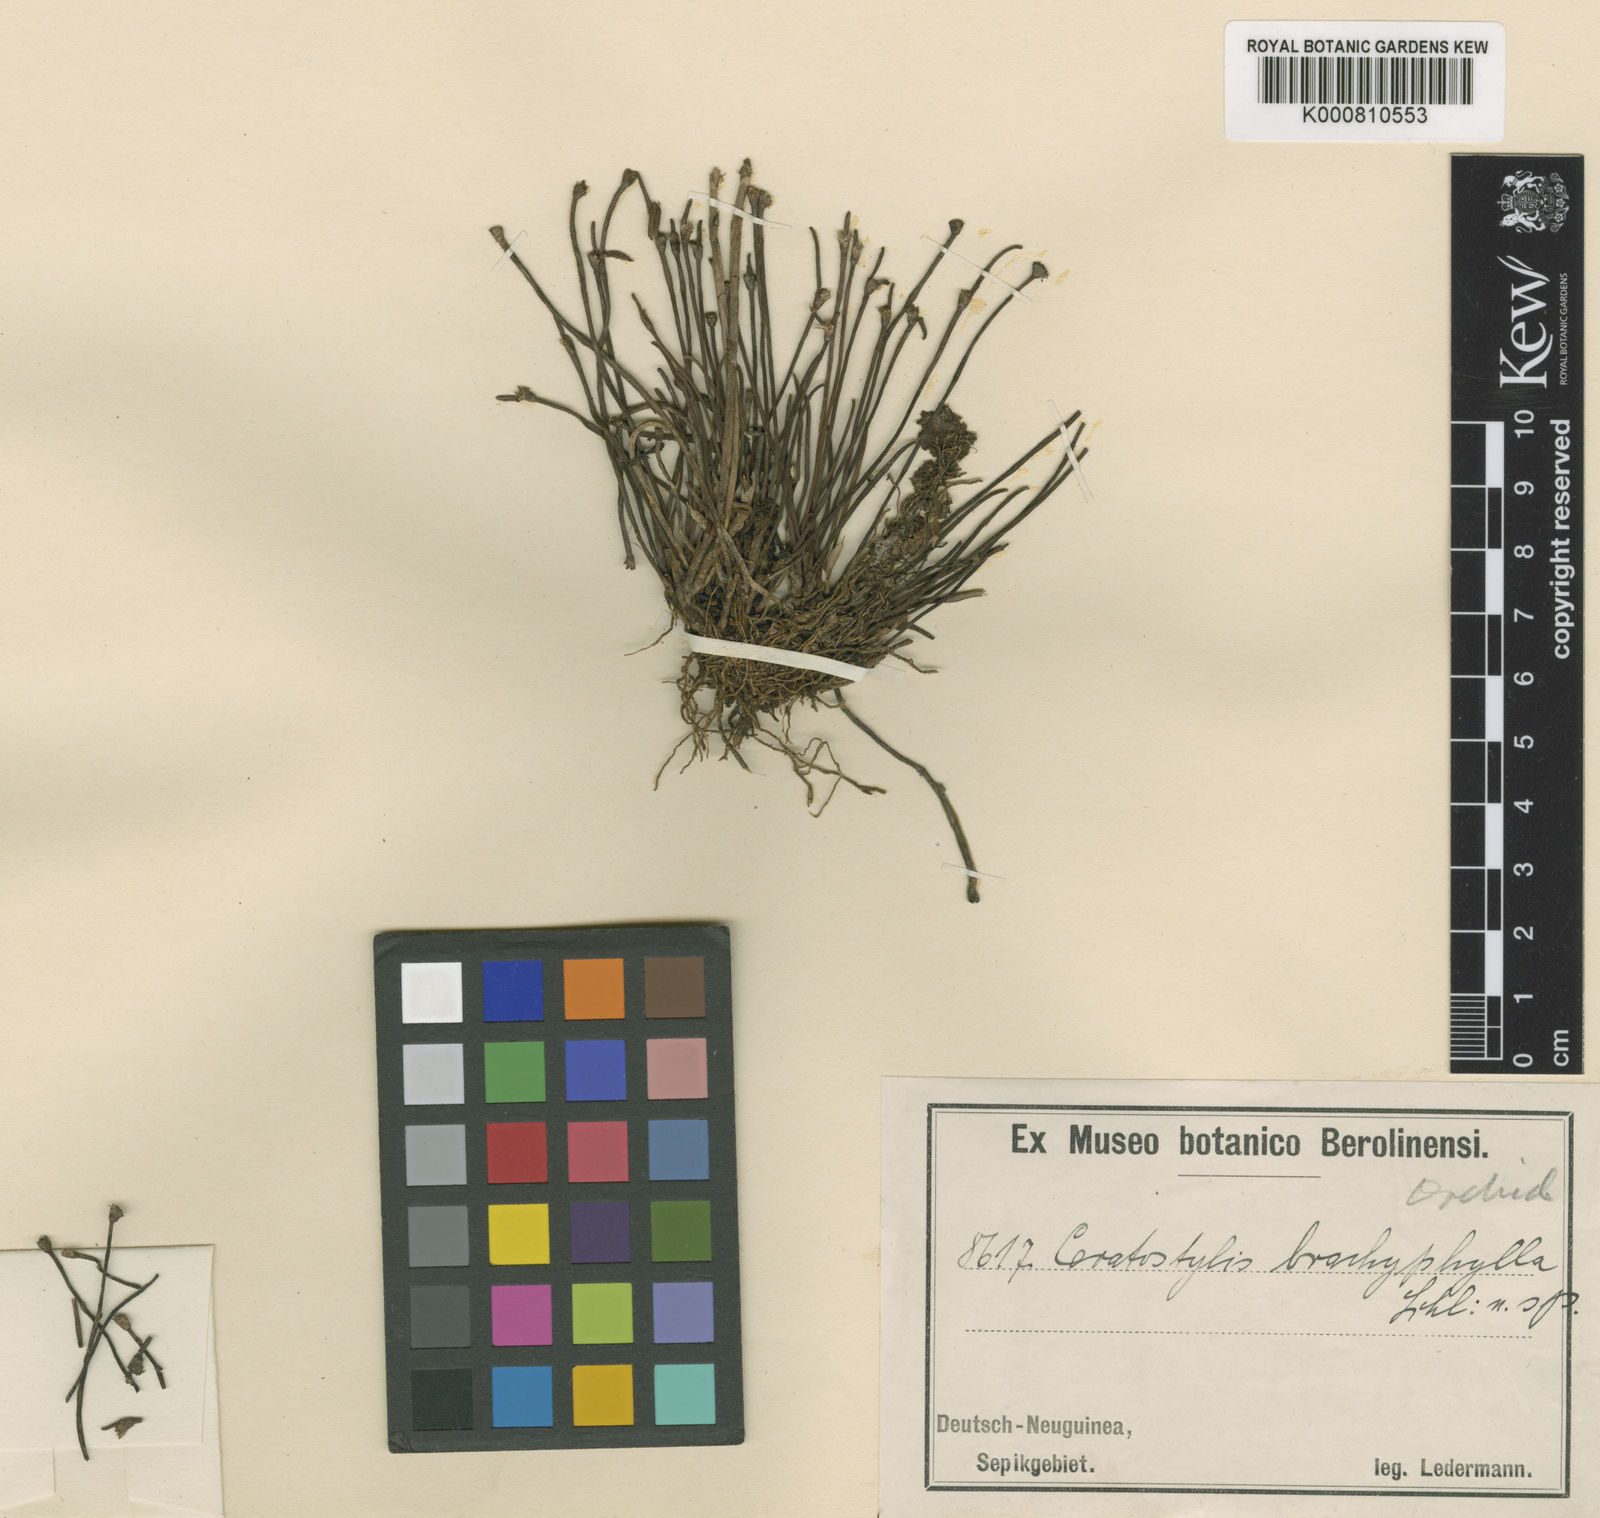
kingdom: Plantae
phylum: Tracheophyta
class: Liliopsida
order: Asparagales
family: Orchidaceae
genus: Ceratostylis
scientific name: Ceratostylis brachyphylla
